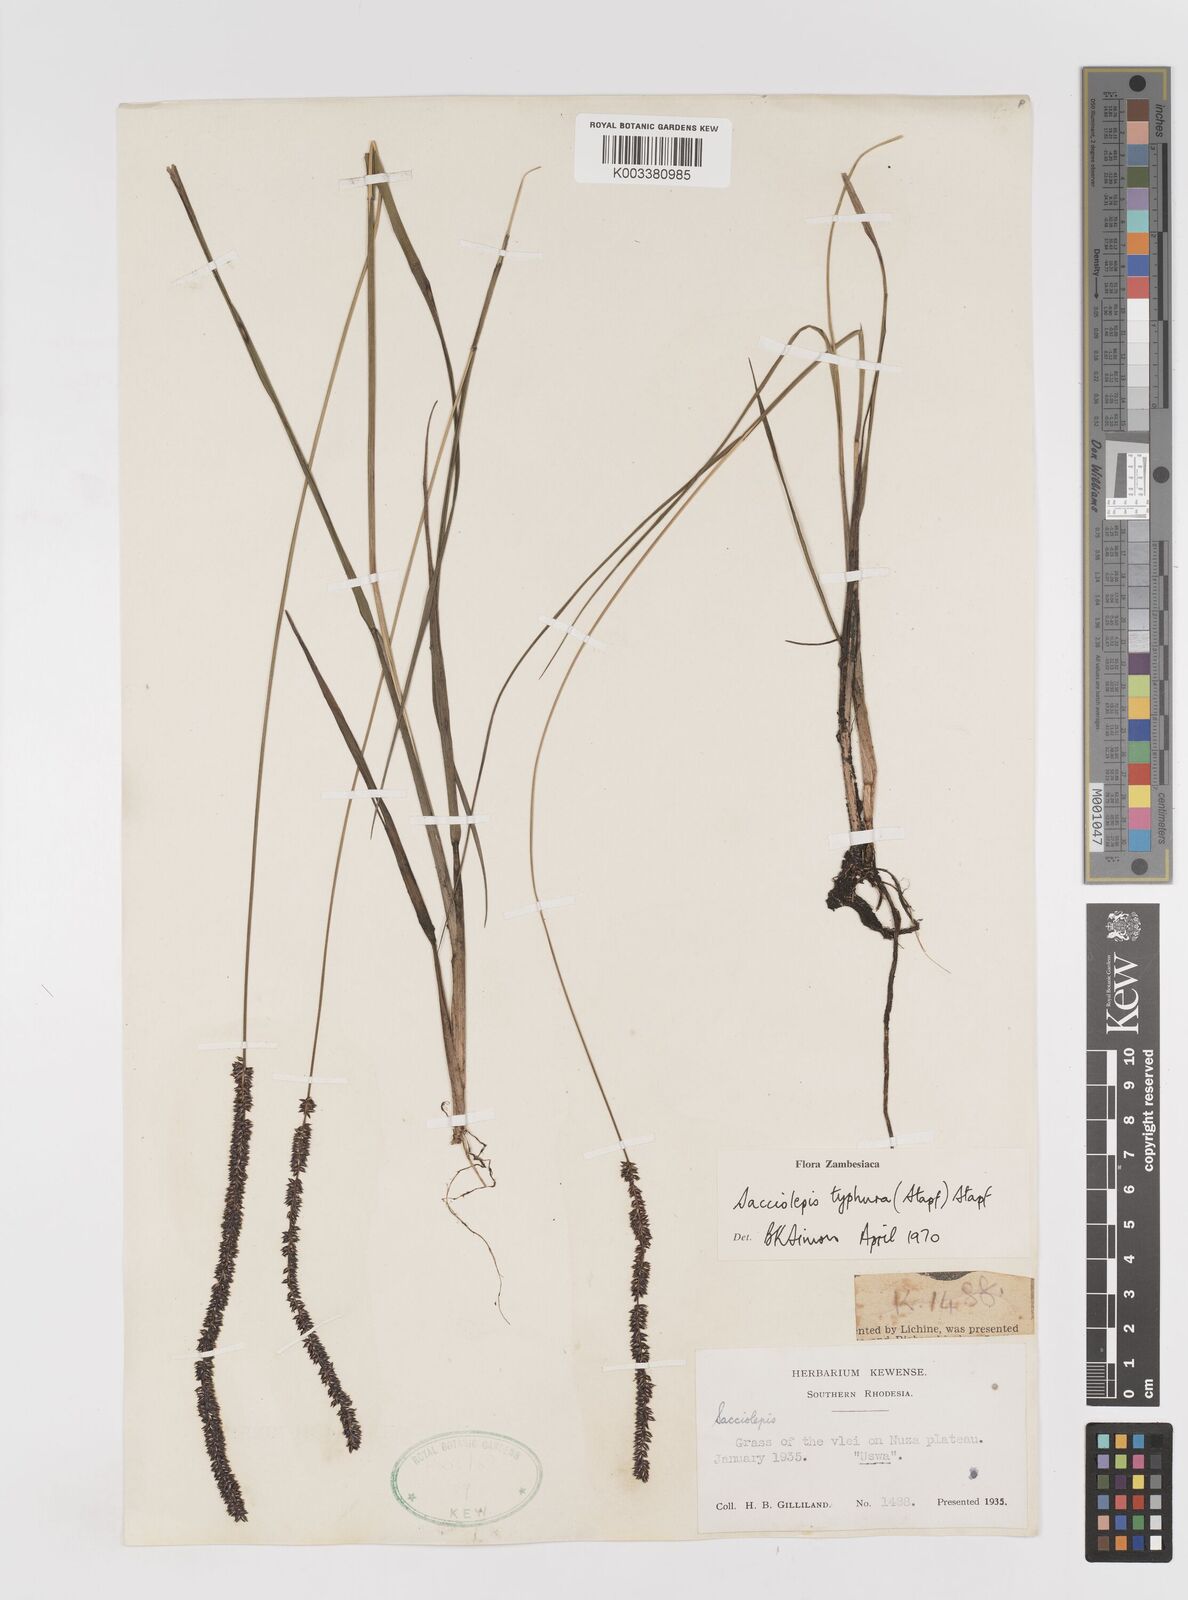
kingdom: Plantae
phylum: Tracheophyta
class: Liliopsida
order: Poales
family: Poaceae
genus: Sacciolepis
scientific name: Sacciolepis typhura
